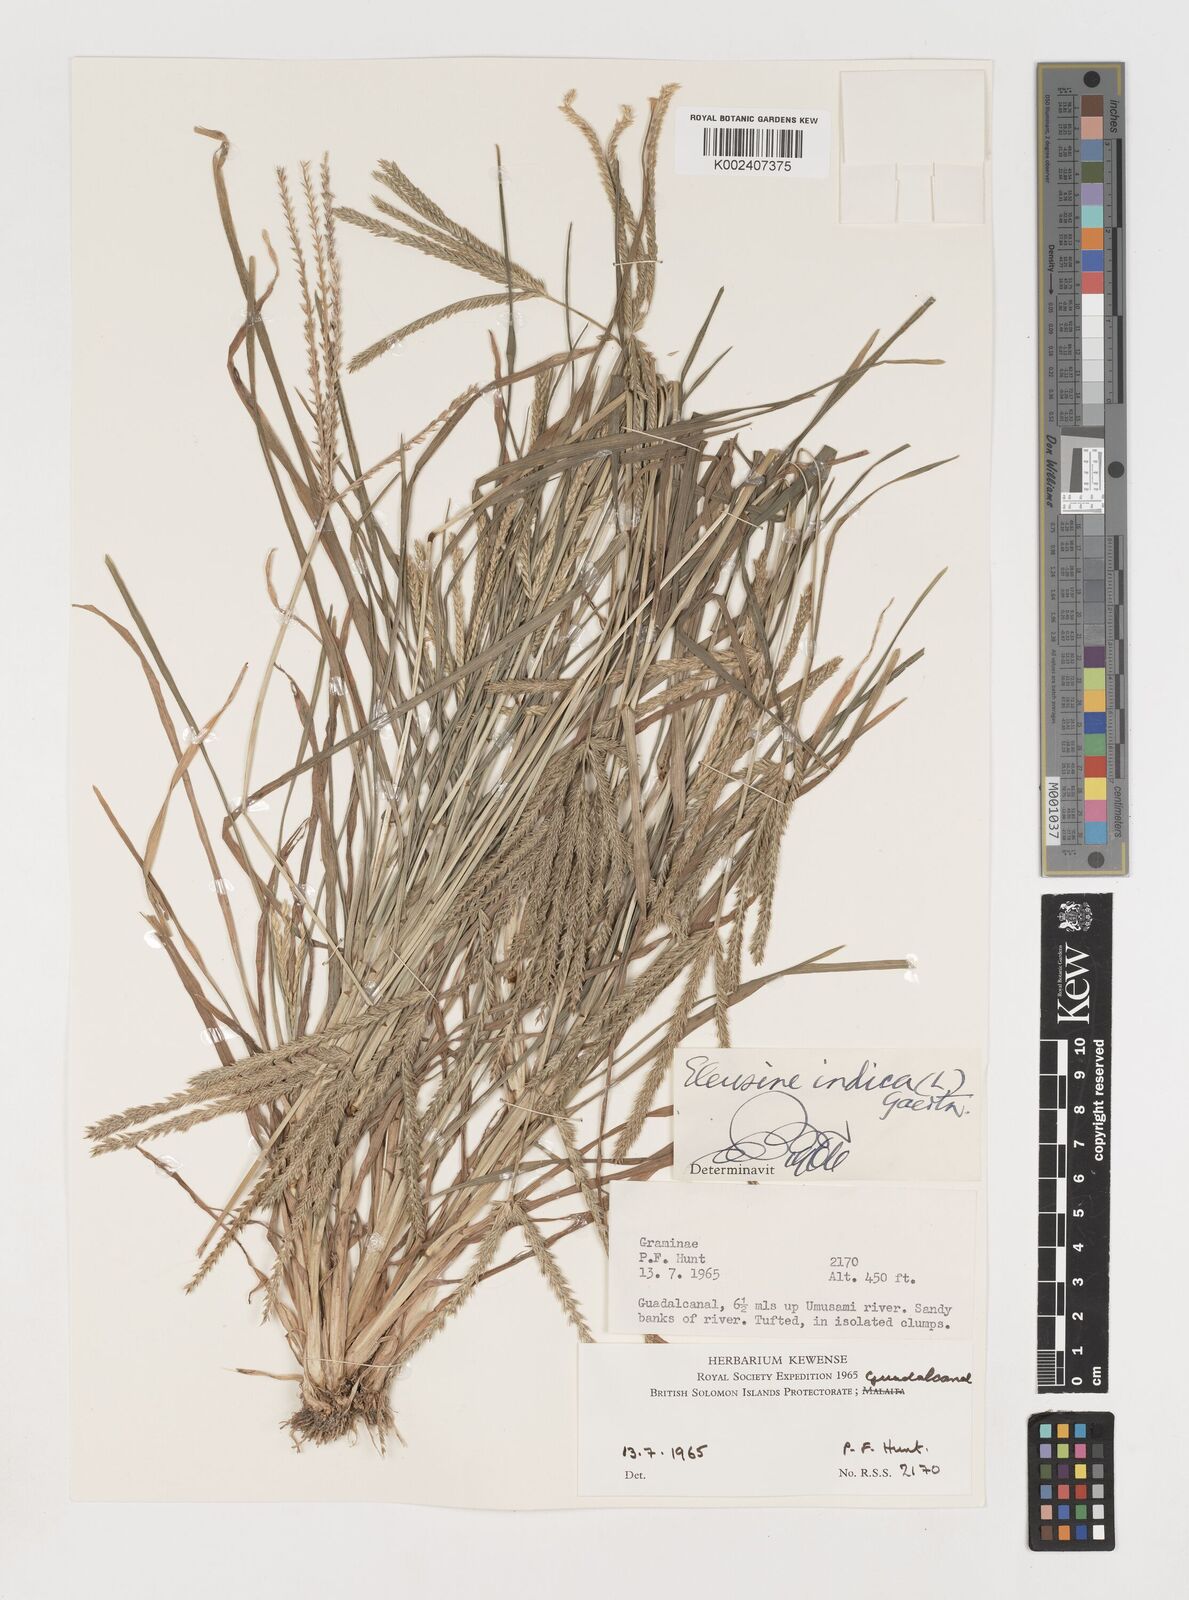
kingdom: Plantae
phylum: Tracheophyta
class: Liliopsida
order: Poales
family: Poaceae
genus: Eleusine
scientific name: Eleusine indica
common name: Yard-grass
